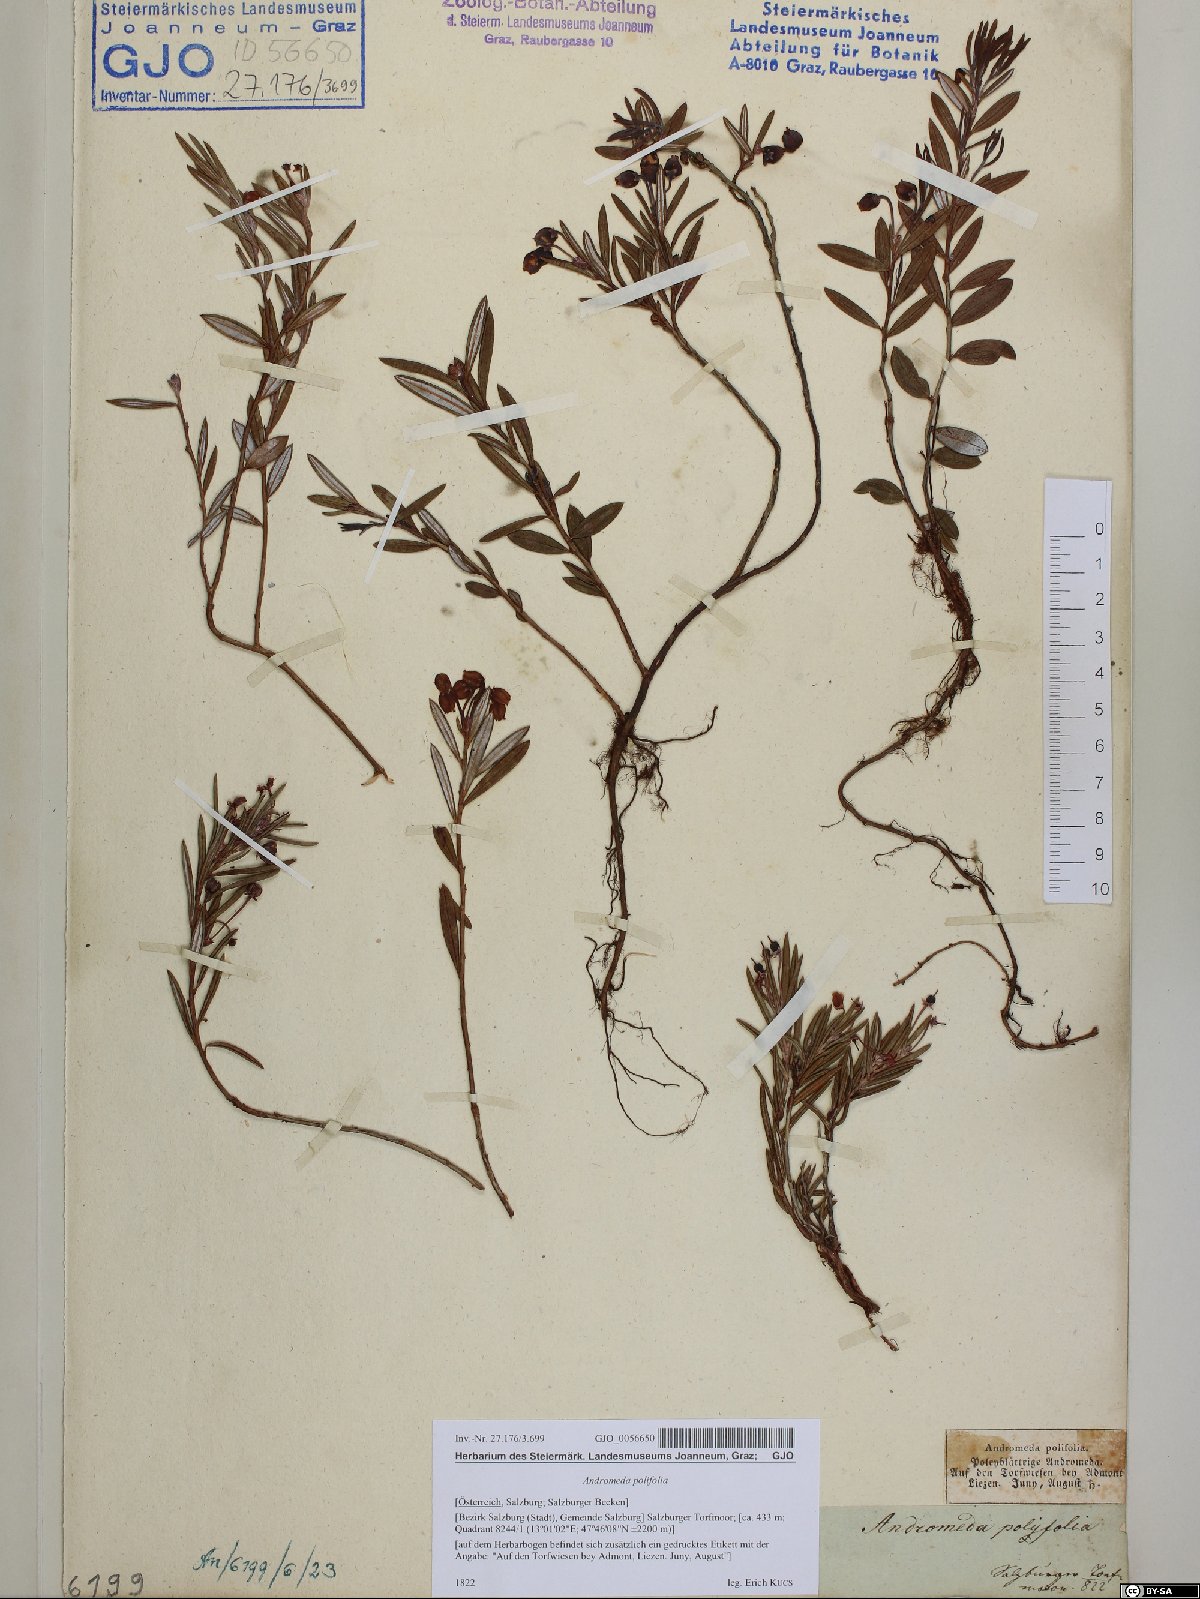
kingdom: Plantae
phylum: Tracheophyta
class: Magnoliopsida
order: Ericales
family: Ericaceae
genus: Andromeda
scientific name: Andromeda polifolia
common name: Bog-rosemary
